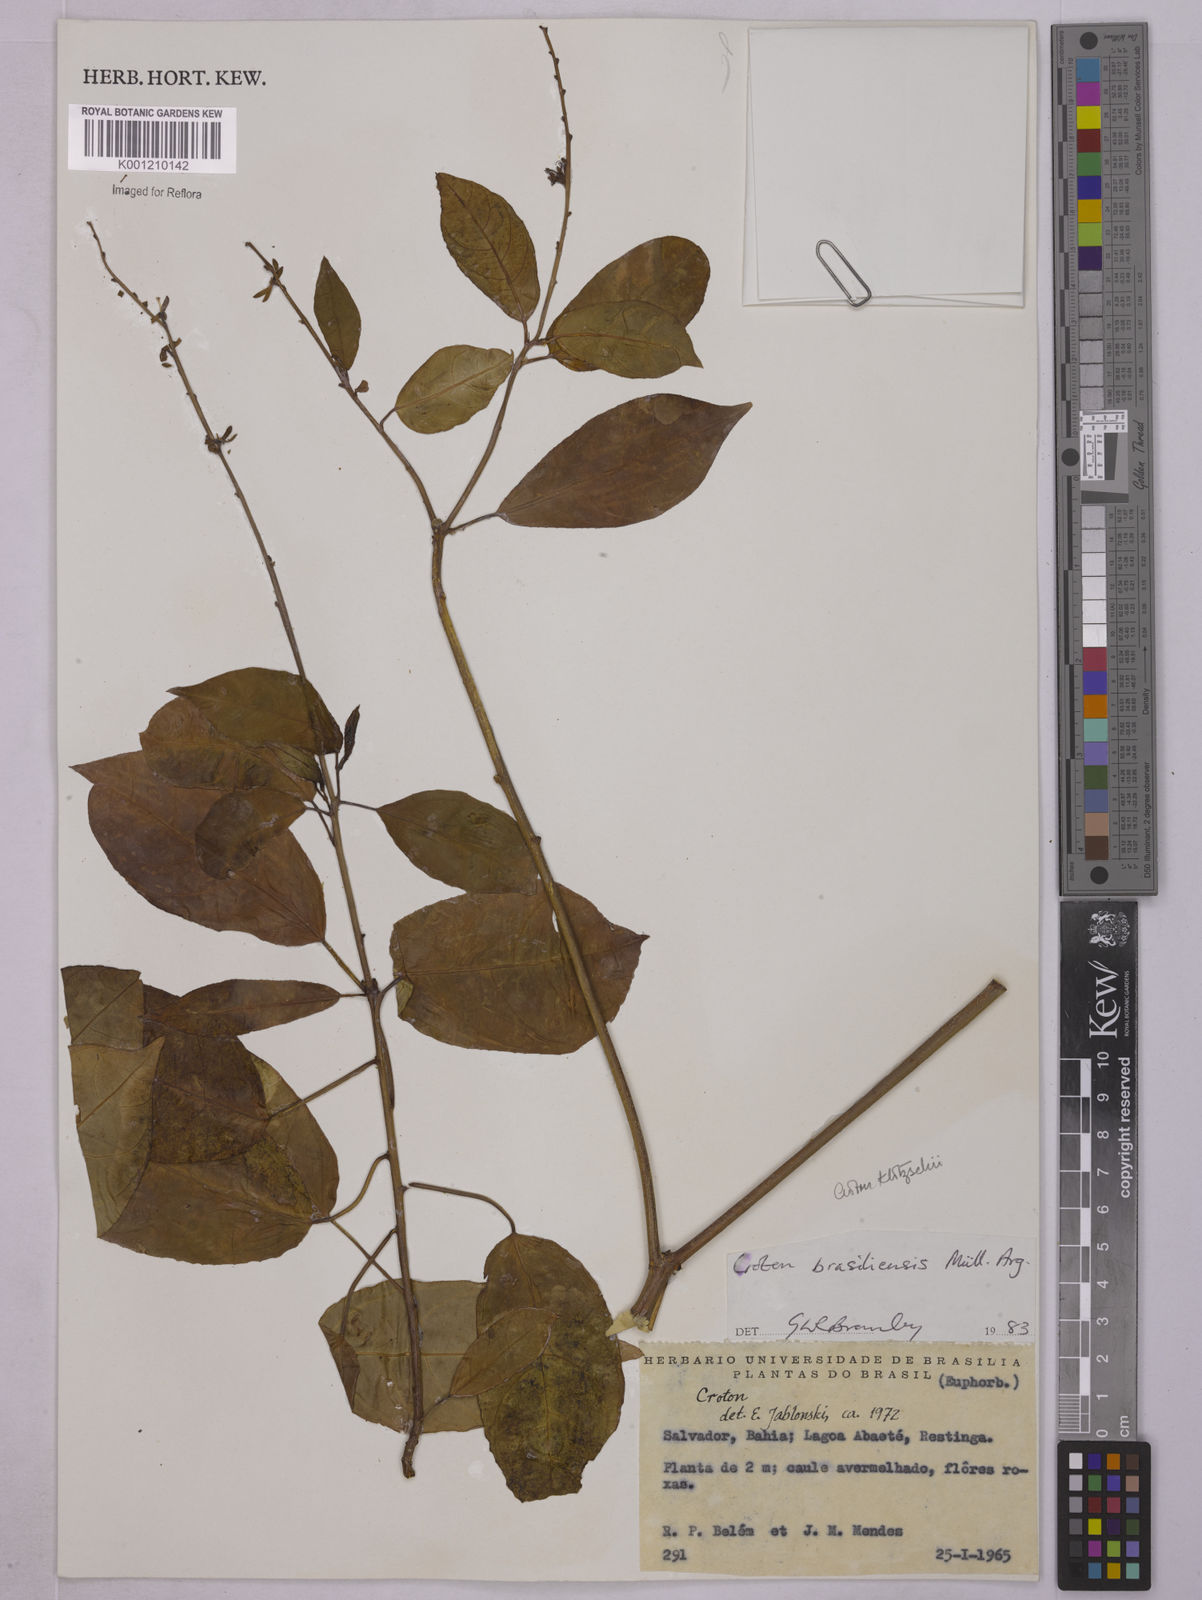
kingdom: Plantae
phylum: Tracheophyta
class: Magnoliopsida
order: Malpighiales
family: Euphorbiaceae
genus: Astraea
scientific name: Astraea macroura
